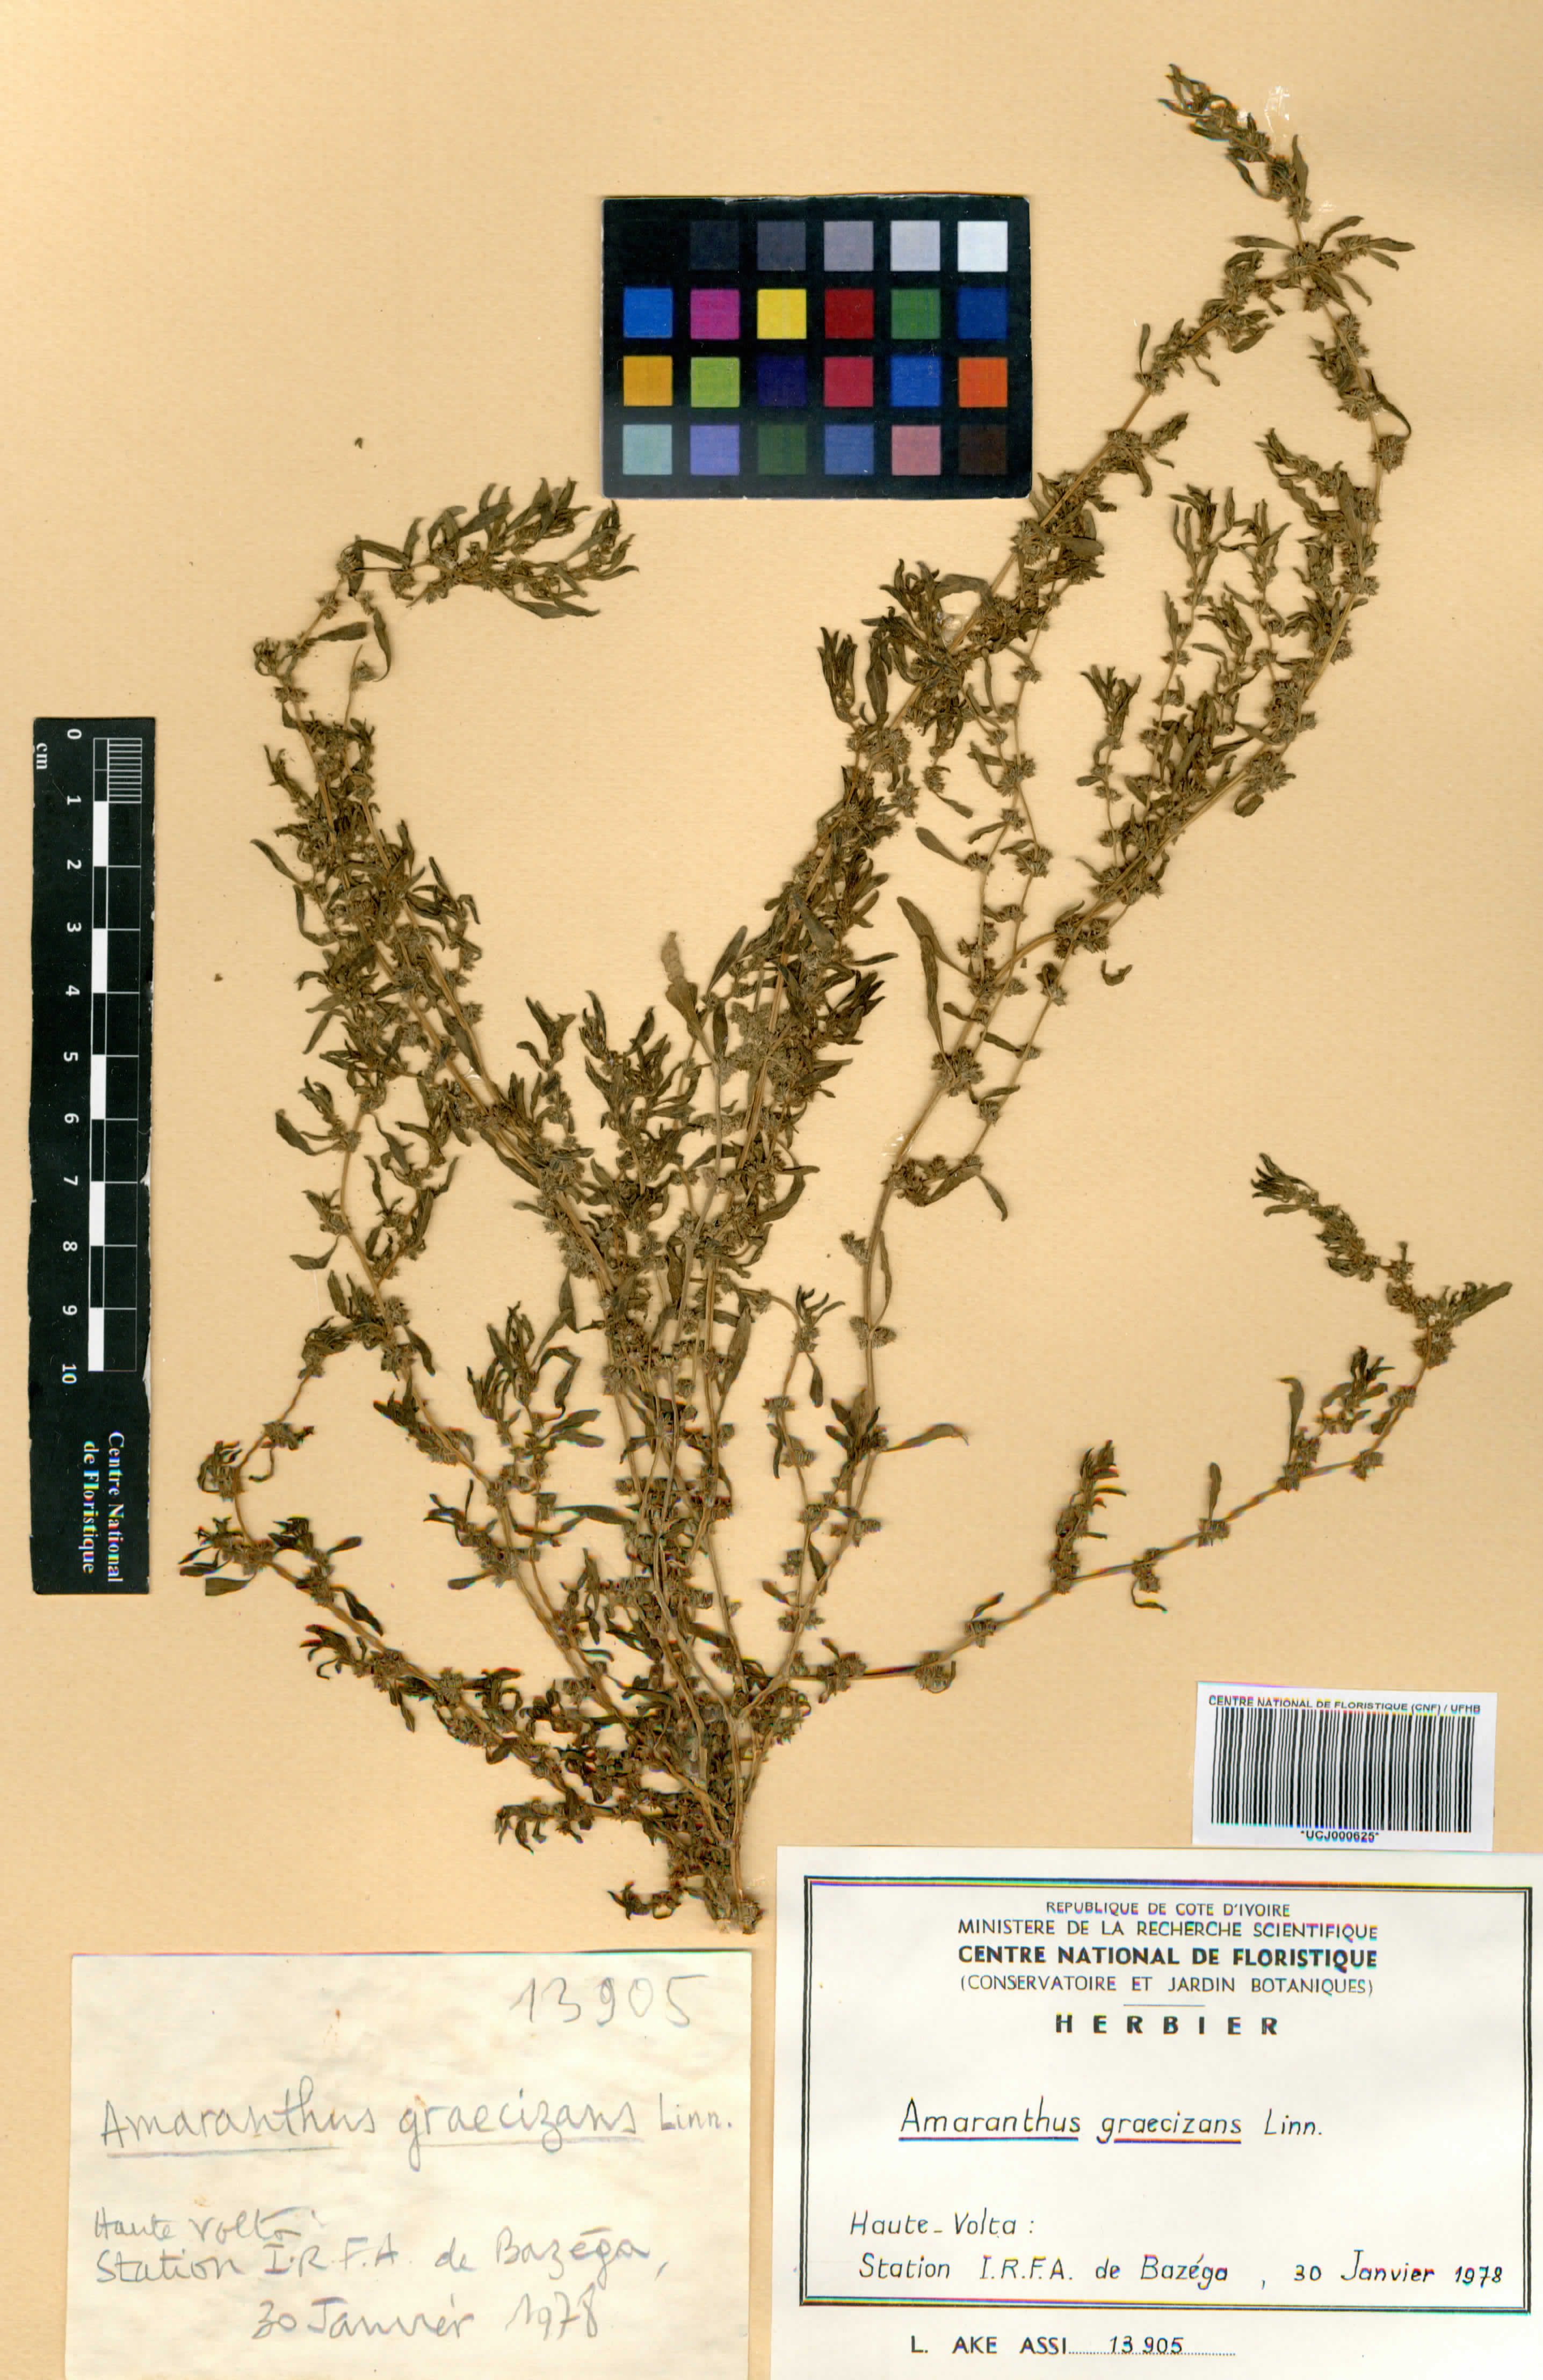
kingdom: Plantae
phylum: Tracheophyta
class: Magnoliopsida
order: Caryophyllales
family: Amaranthaceae
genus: Amaranthus
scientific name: Amaranthus graecizans
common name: Mediterranean amaranth
